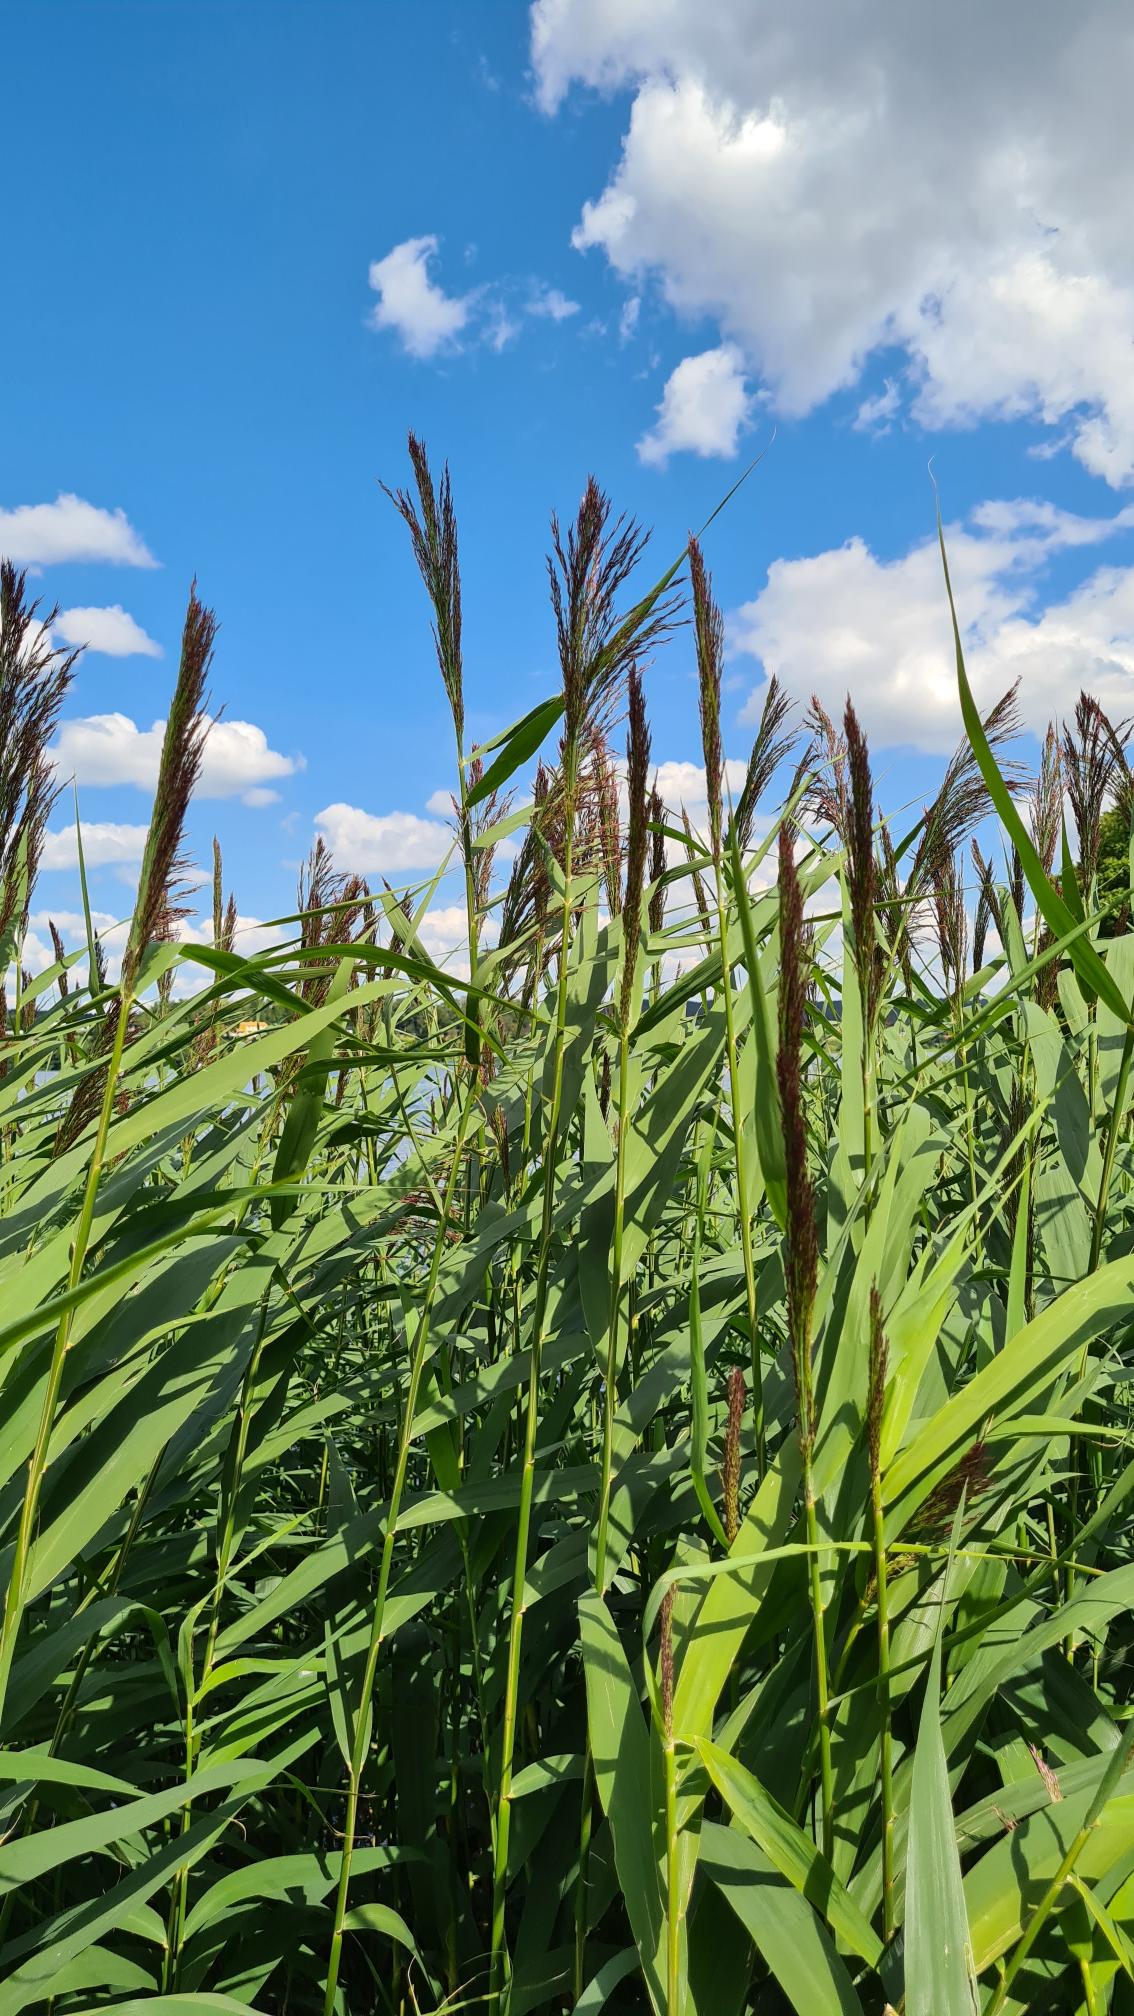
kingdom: Plantae
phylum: Tracheophyta
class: Liliopsida
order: Poales
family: Poaceae
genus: Phragmites
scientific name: Phragmites australis
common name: Tagrør
